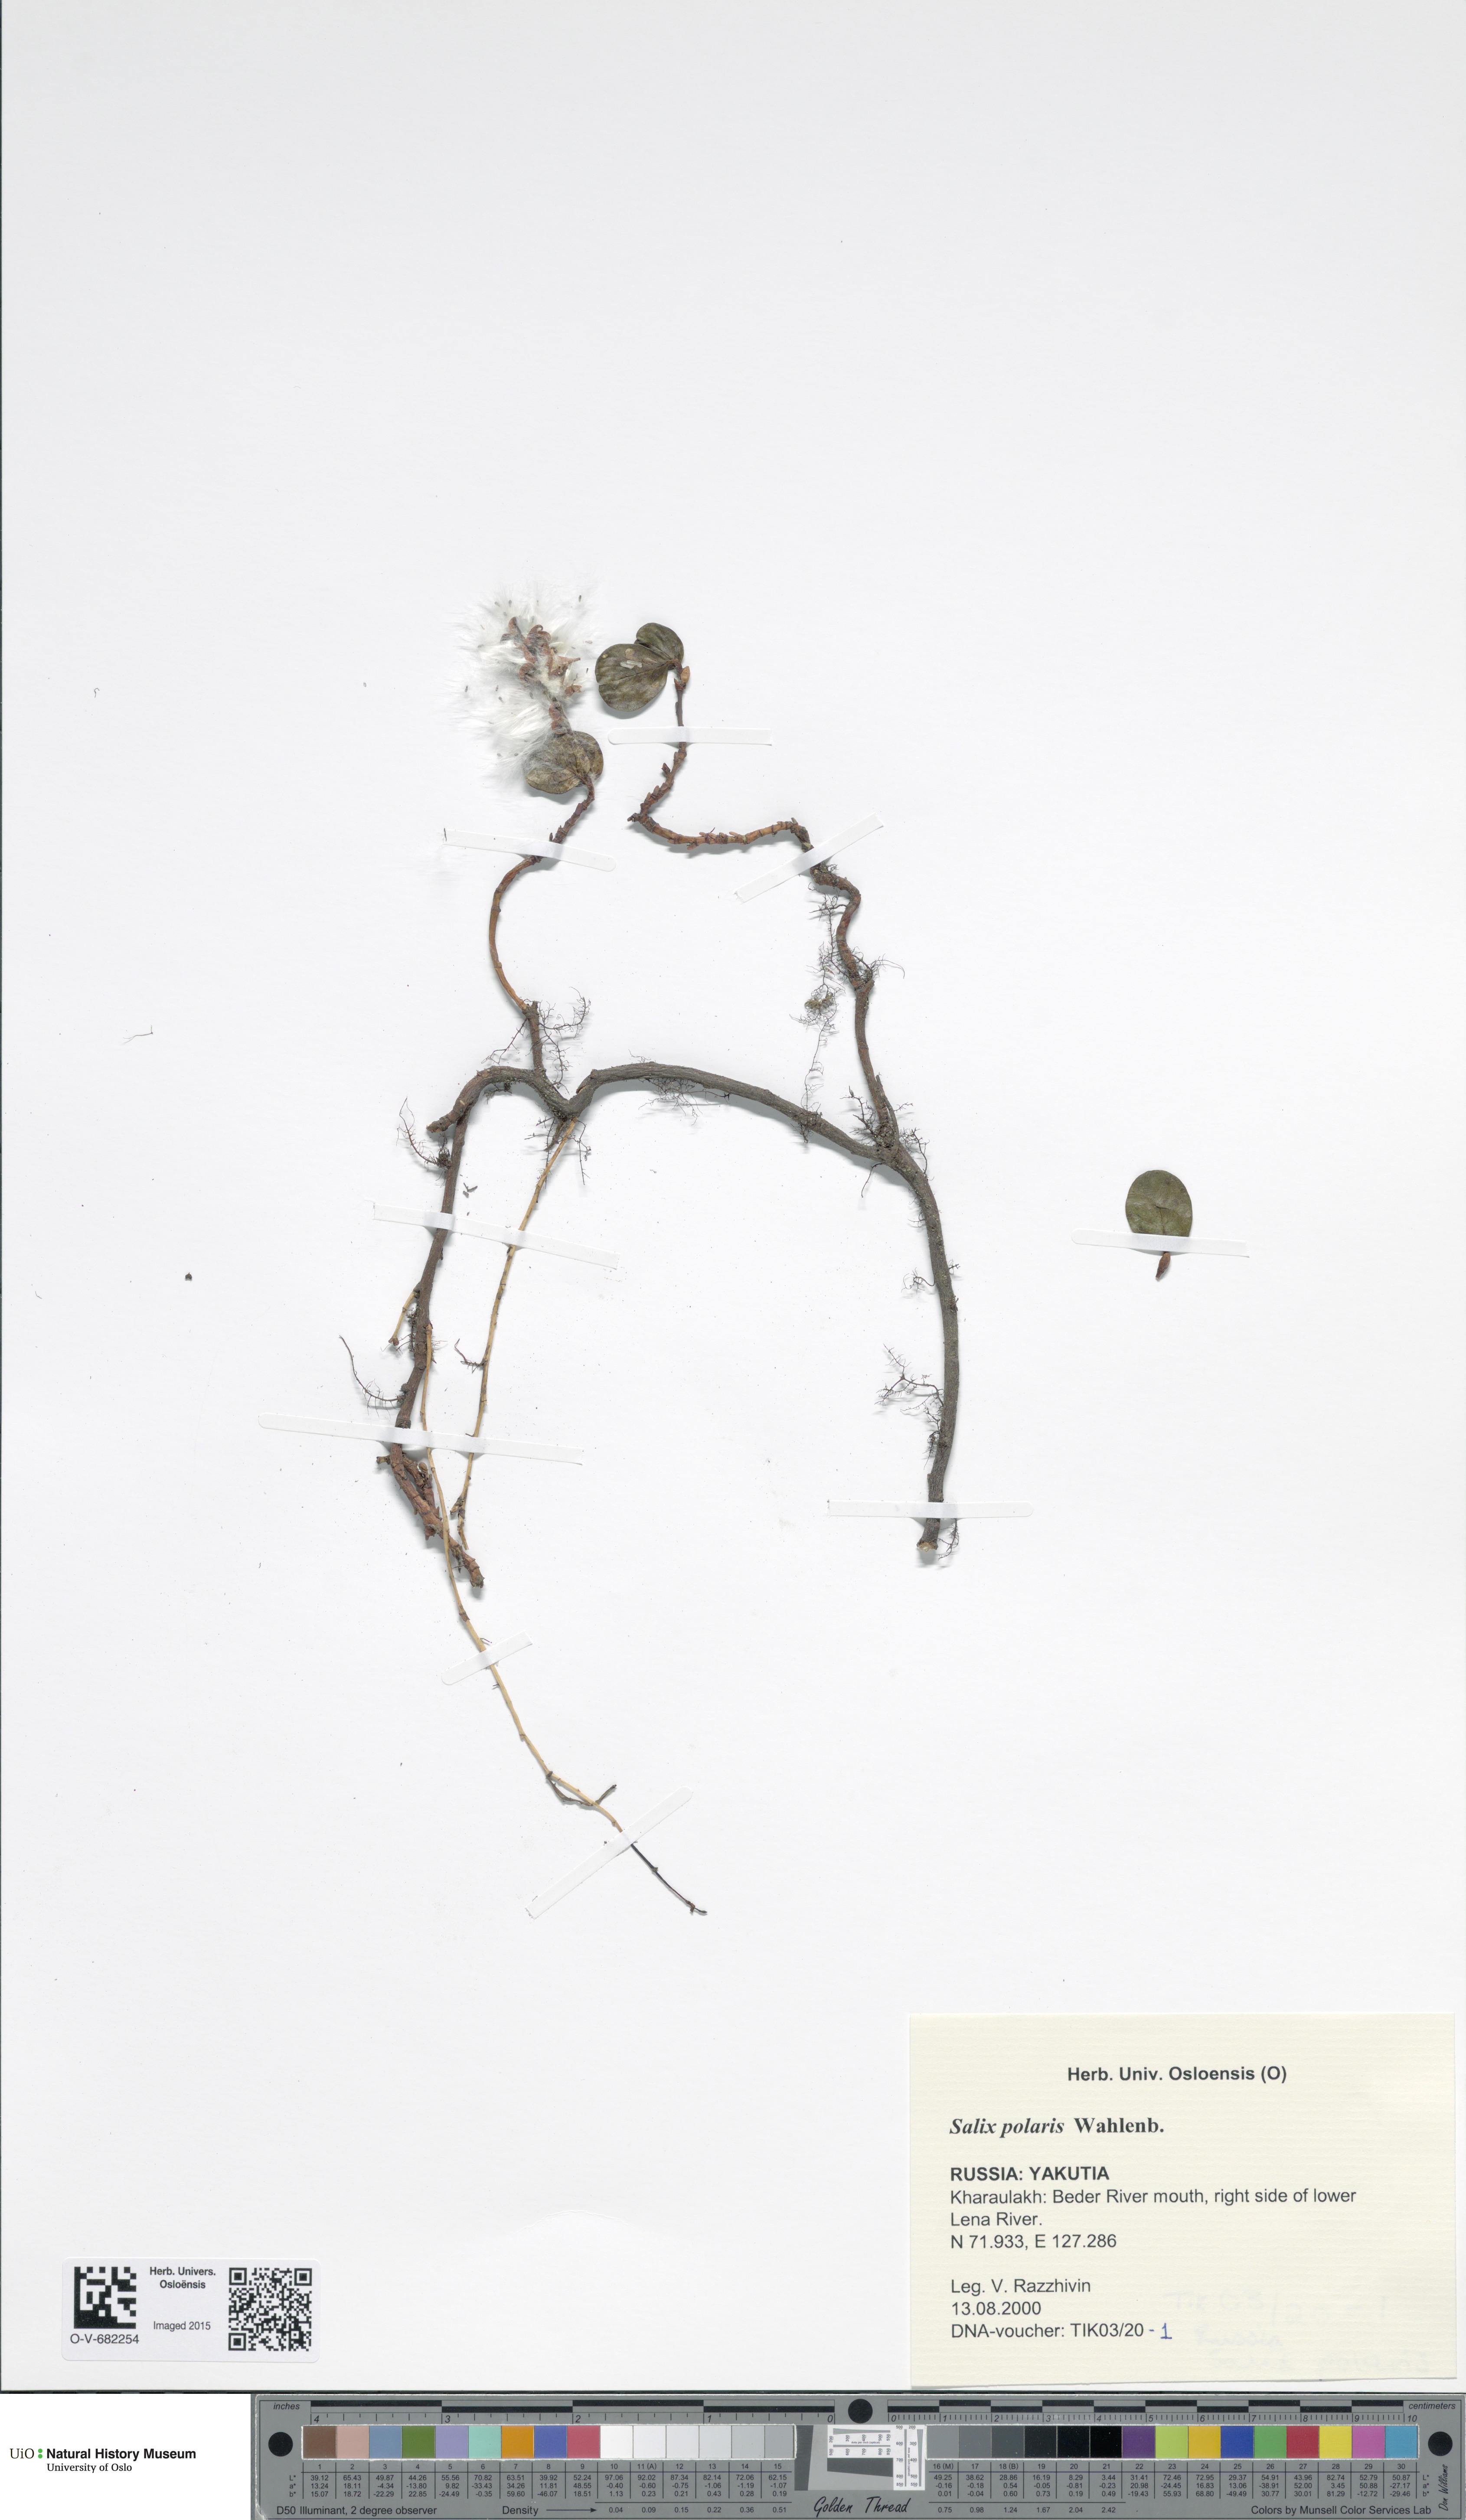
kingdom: Plantae
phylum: Tracheophyta
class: Magnoliopsida
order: Malpighiales
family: Salicaceae
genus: Salix
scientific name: Salix polaris
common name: Polar willow
